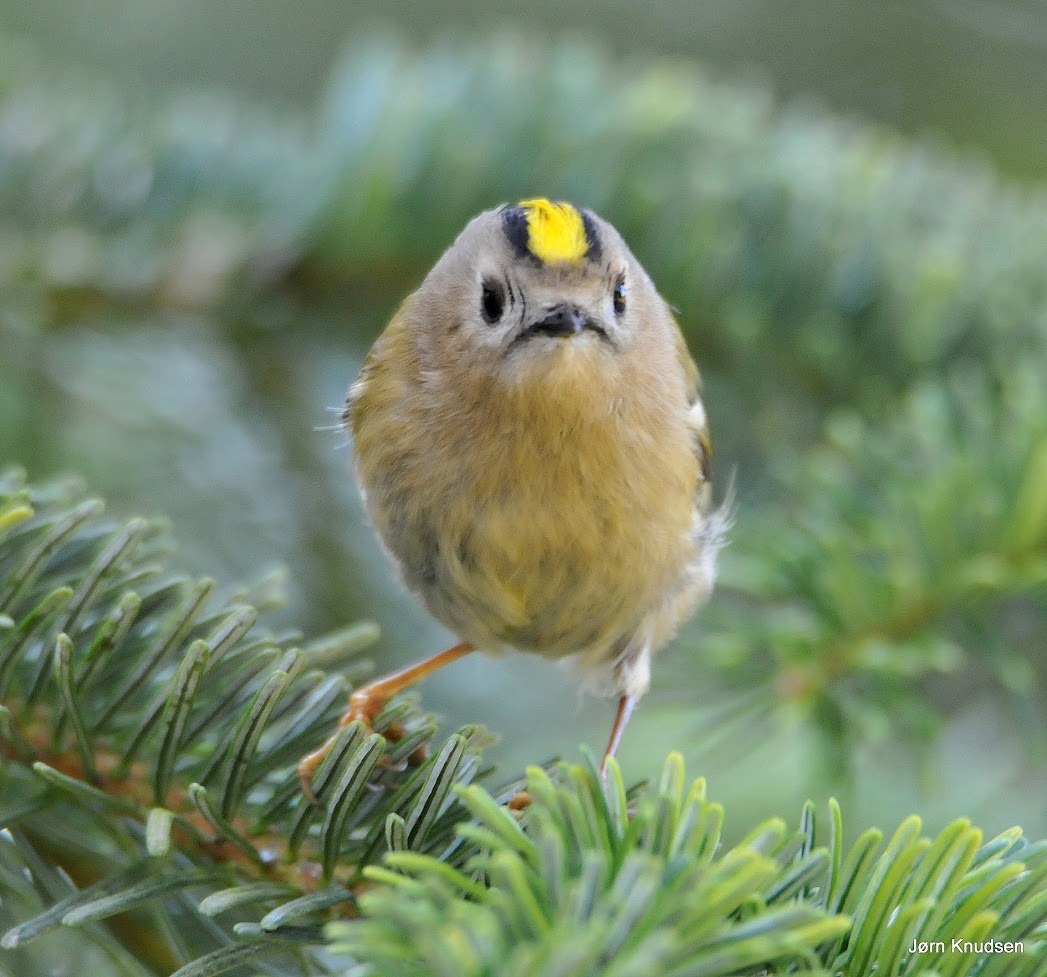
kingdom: Animalia
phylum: Chordata
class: Aves
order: Passeriformes
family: Regulidae
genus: Regulus
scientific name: Regulus regulus
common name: Fuglekonge
